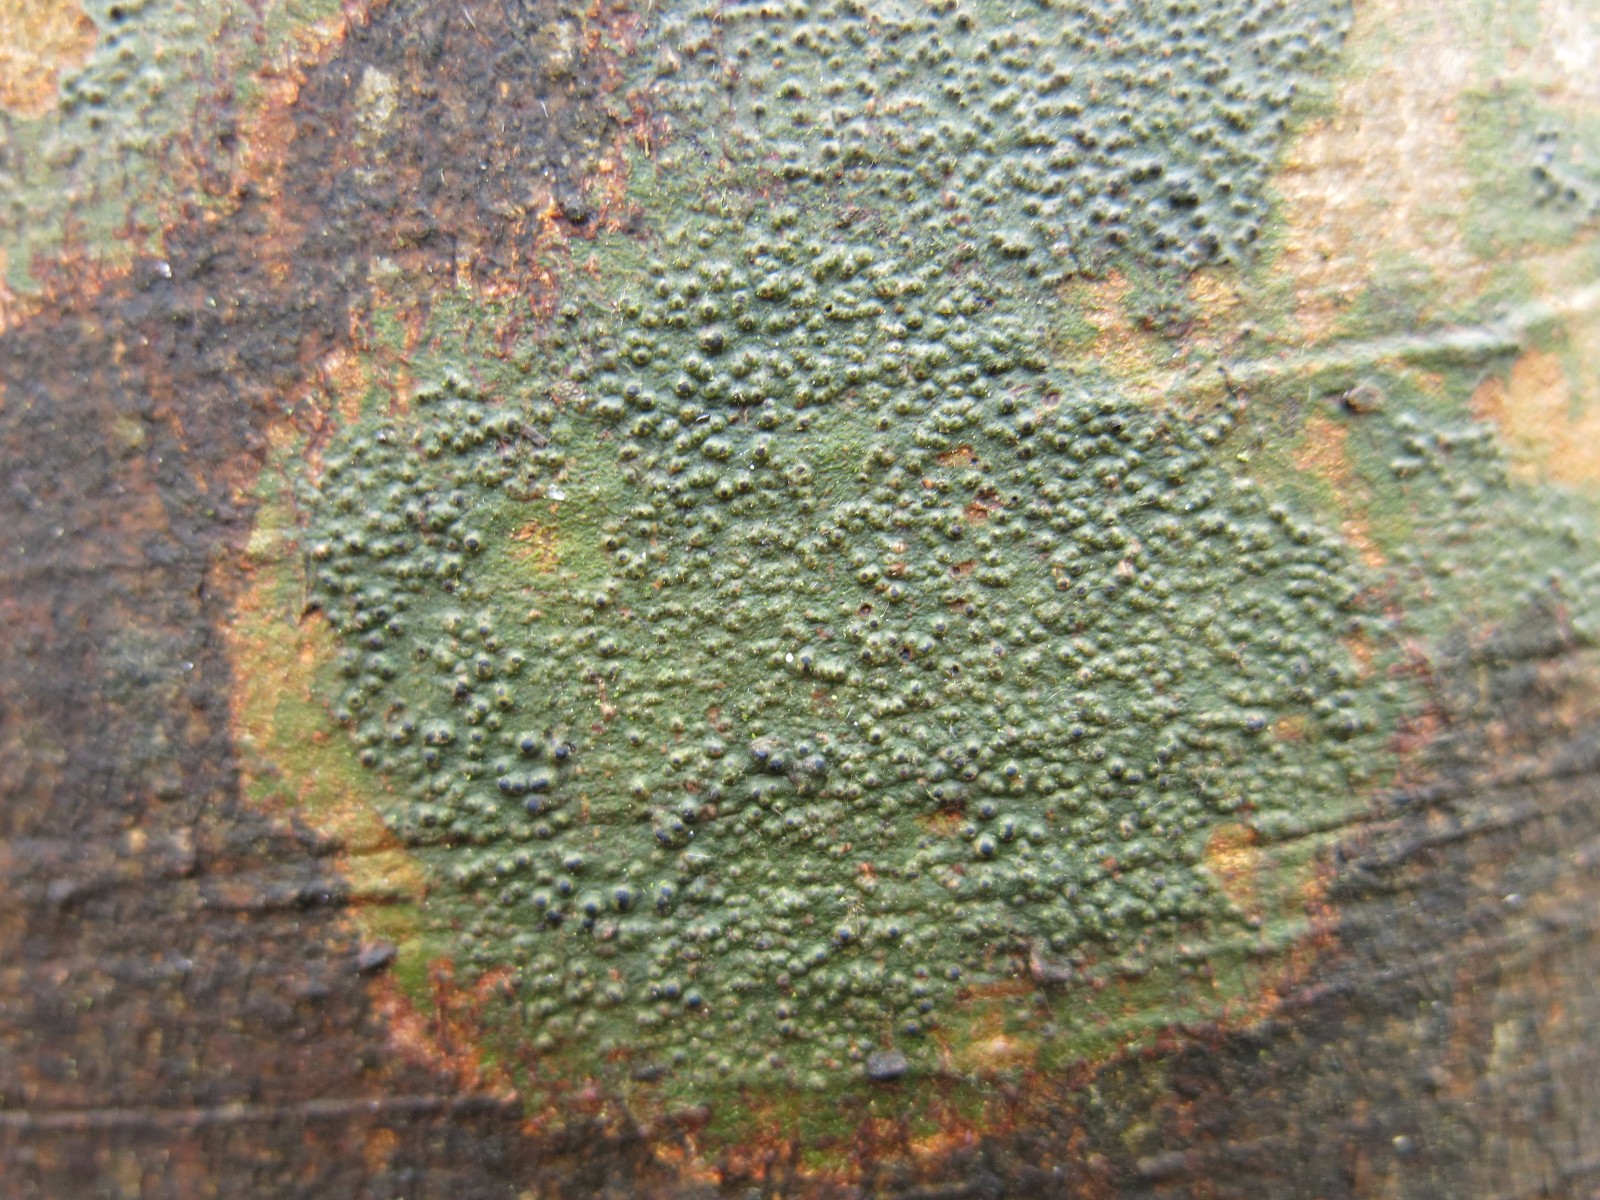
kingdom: Fungi
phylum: Ascomycota
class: Eurotiomycetes
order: Pyrenulales
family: Pyrenulaceae
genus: Pyrenula
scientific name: Pyrenula nitidella
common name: liden kernelav
